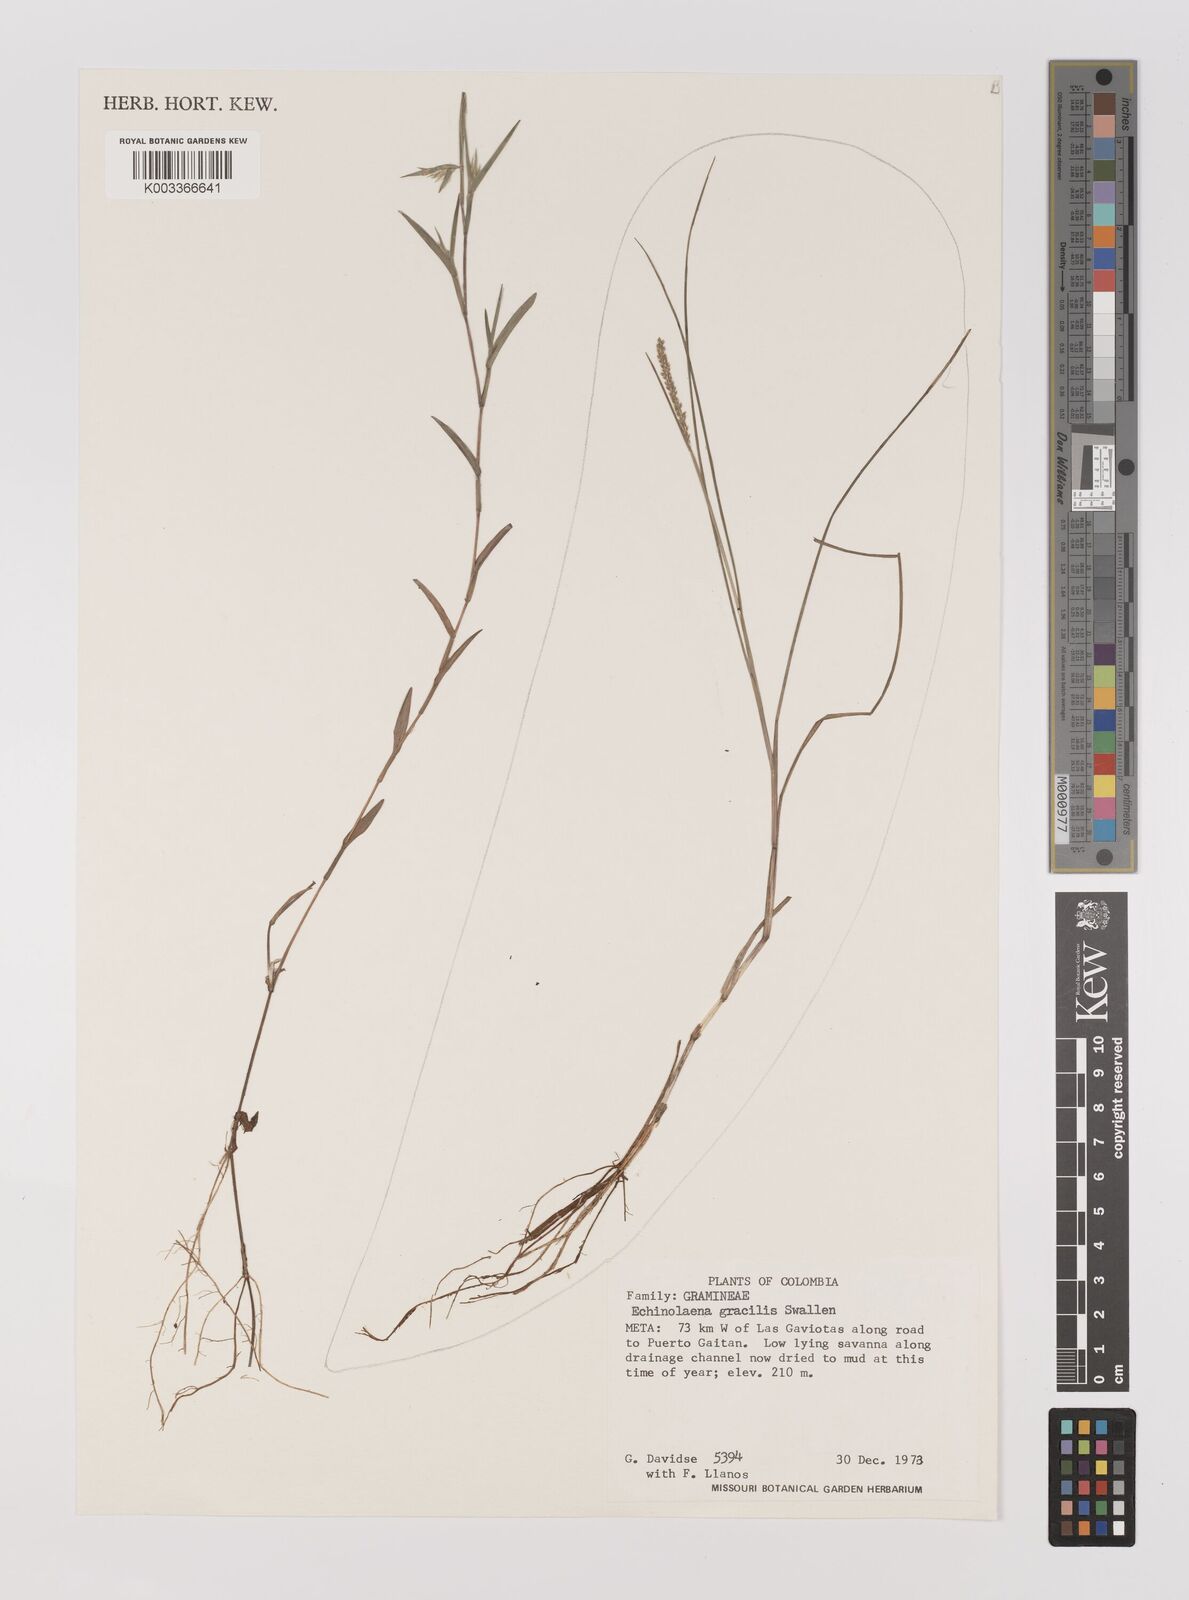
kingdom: Plantae
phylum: Tracheophyta
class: Liliopsida
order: Poales
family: Poaceae
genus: Echinolaena
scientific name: Echinolaena gracilis
